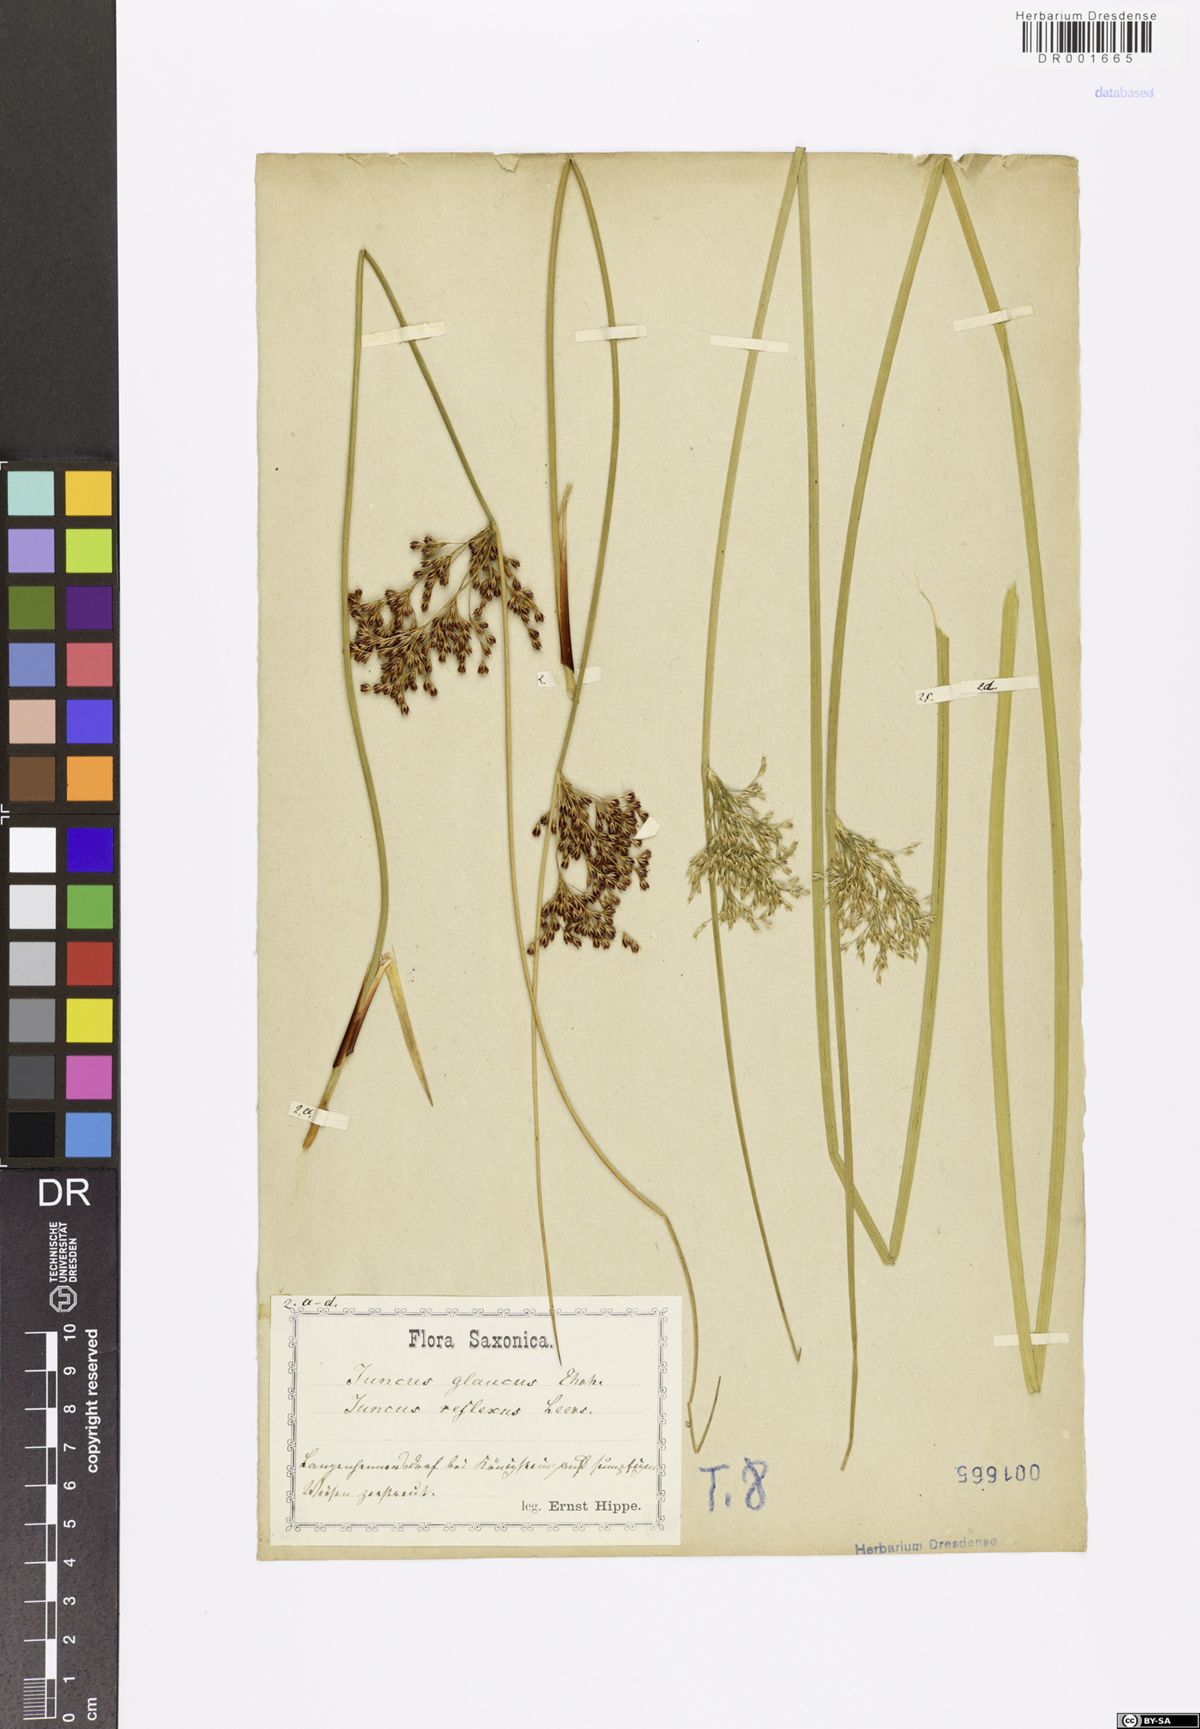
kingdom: Plantae
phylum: Tracheophyta
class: Liliopsida
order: Poales
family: Juncaceae
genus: Juncus
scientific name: Juncus inflexus
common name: Hard rush
